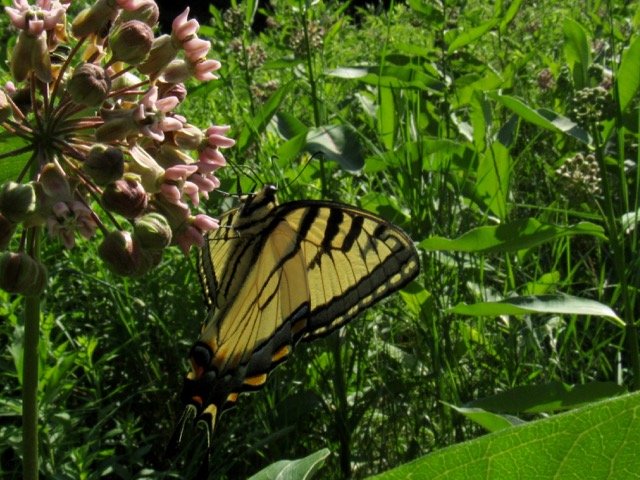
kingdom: Animalia
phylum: Arthropoda
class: Insecta
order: Lepidoptera
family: Papilionidae
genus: Pterourus
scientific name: Pterourus
